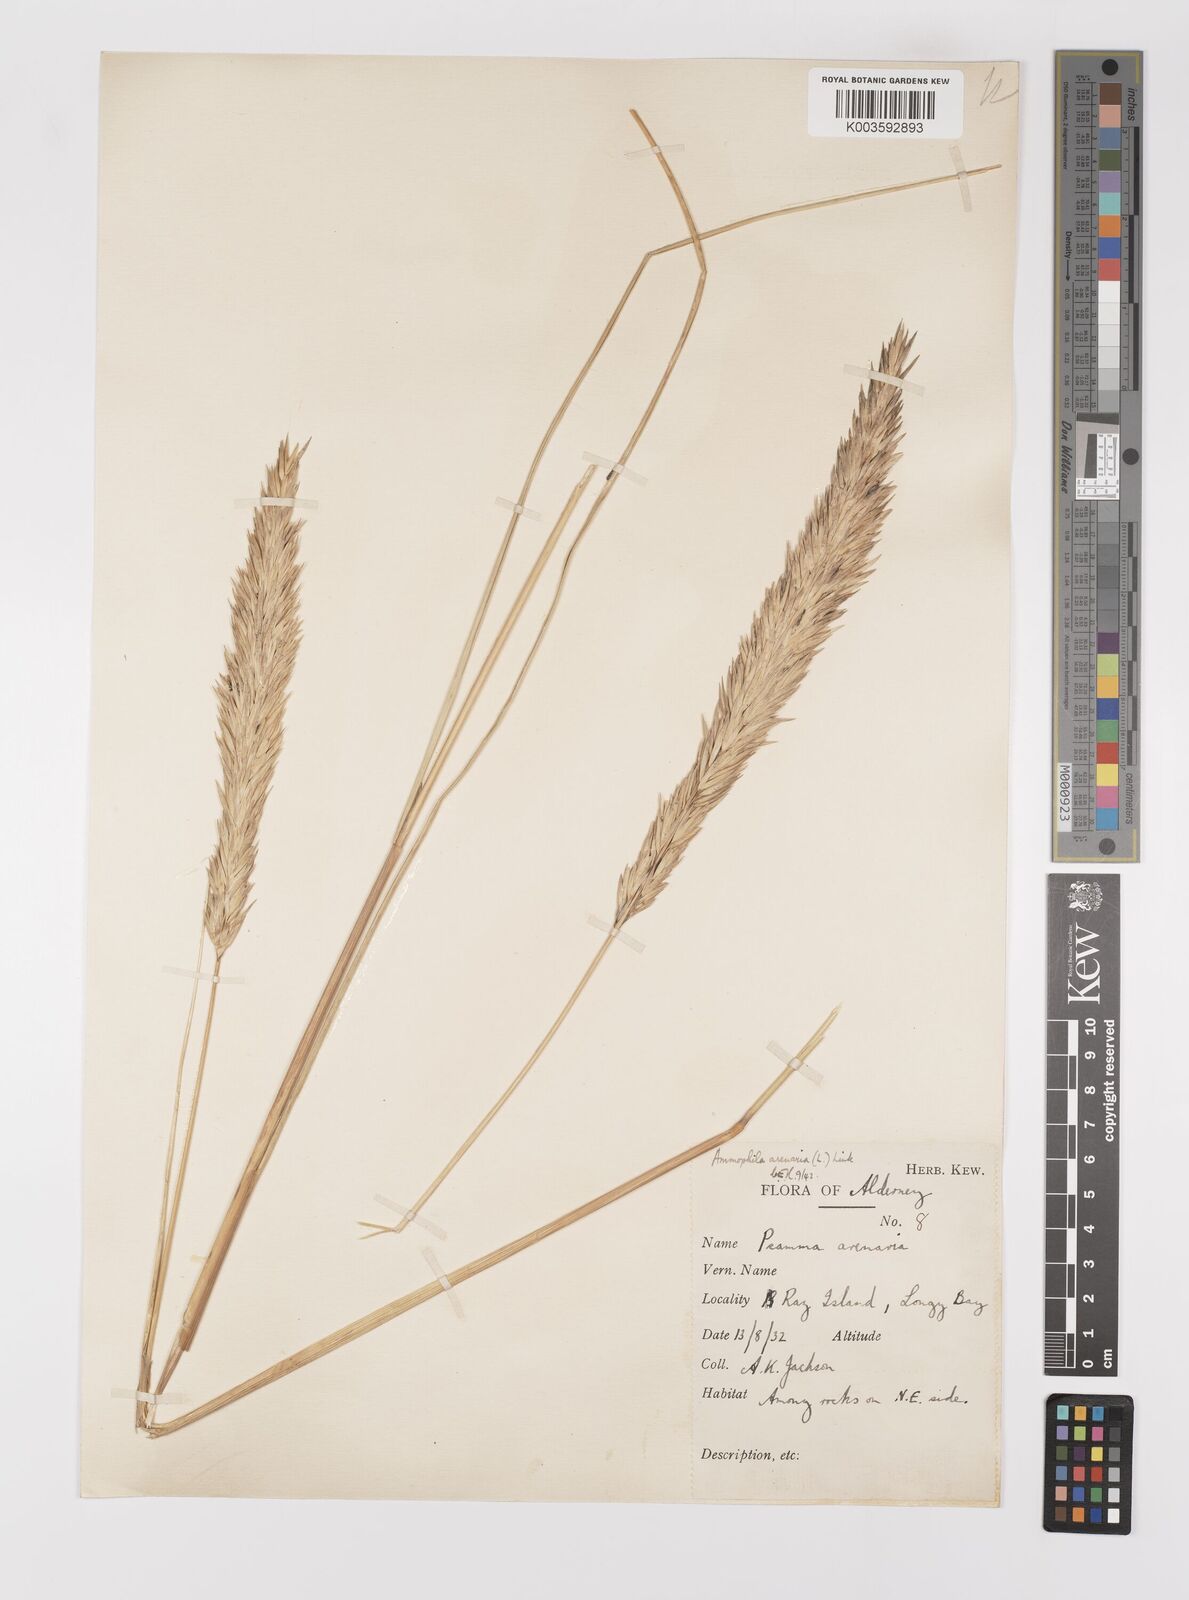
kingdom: Plantae
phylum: Tracheophyta
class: Liliopsida
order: Poales
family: Poaceae
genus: Calamagrostis
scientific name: Calamagrostis arenaria
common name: European beachgrass
